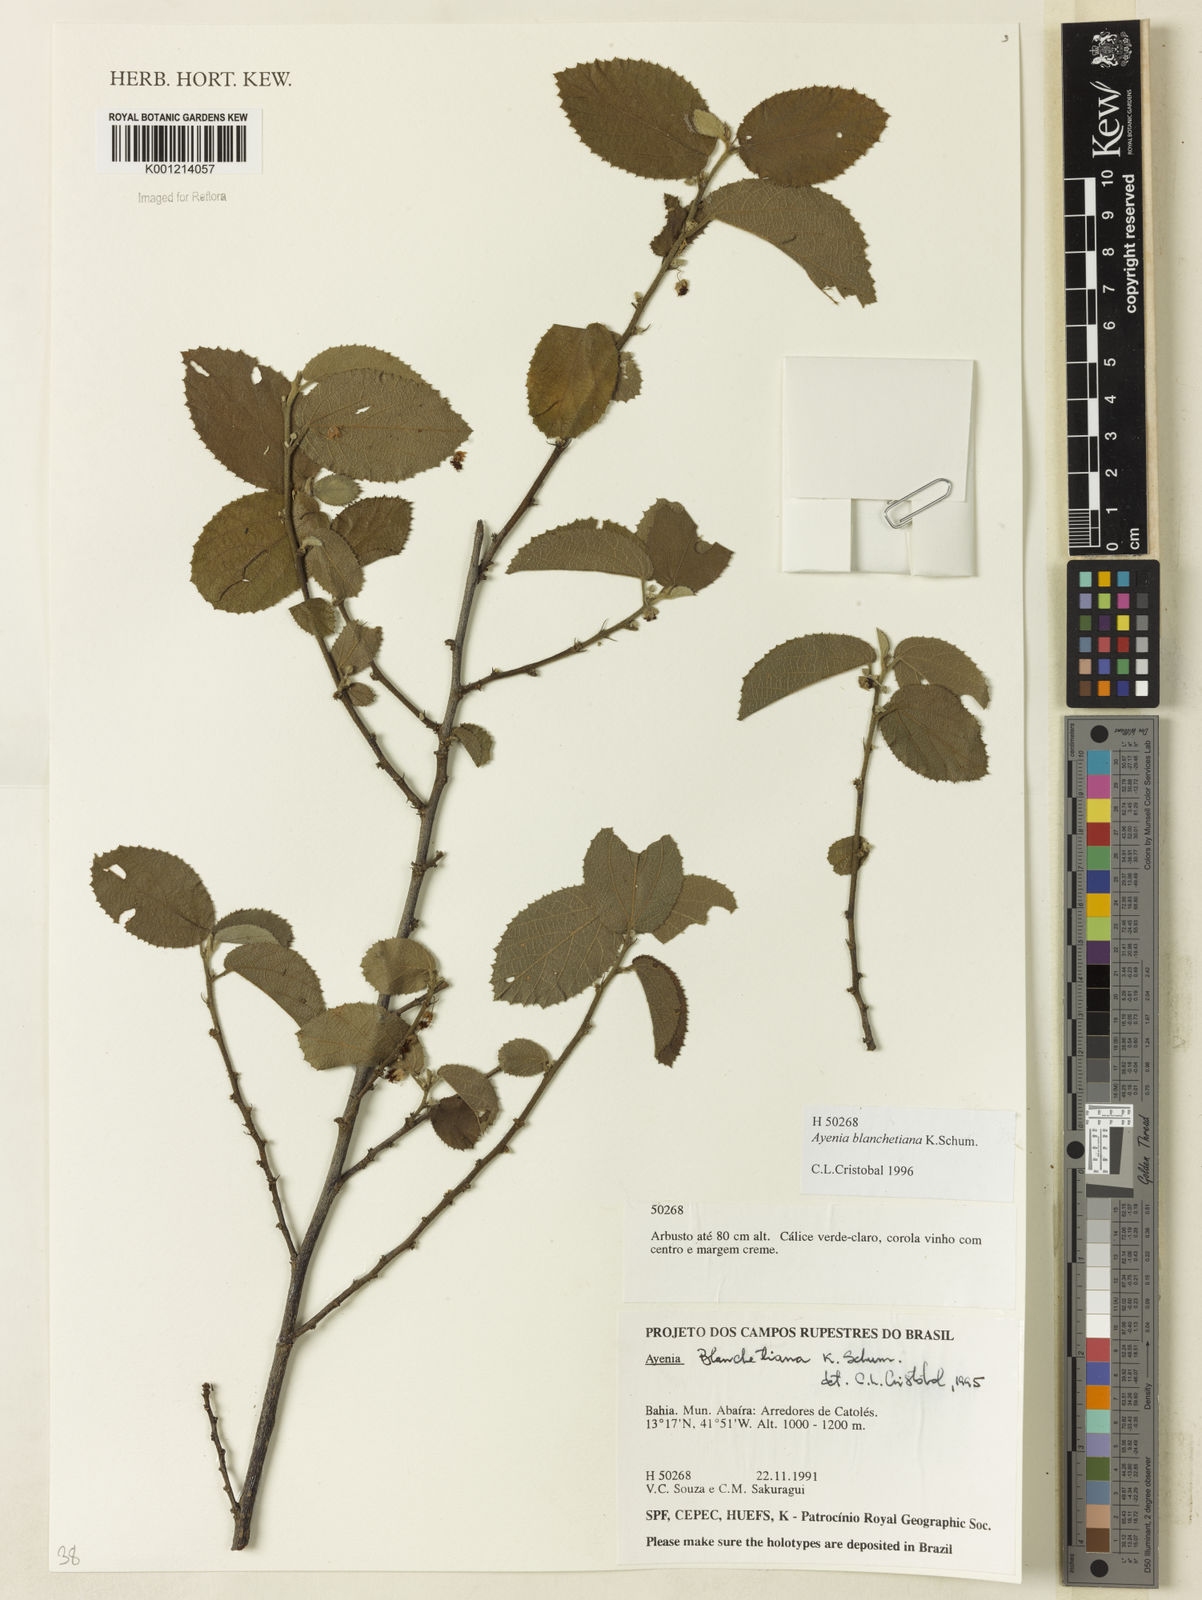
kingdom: Plantae
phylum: Tracheophyta
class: Magnoliopsida
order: Malvales
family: Malvaceae
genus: Ayenia
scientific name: Ayenia blanchetiana
